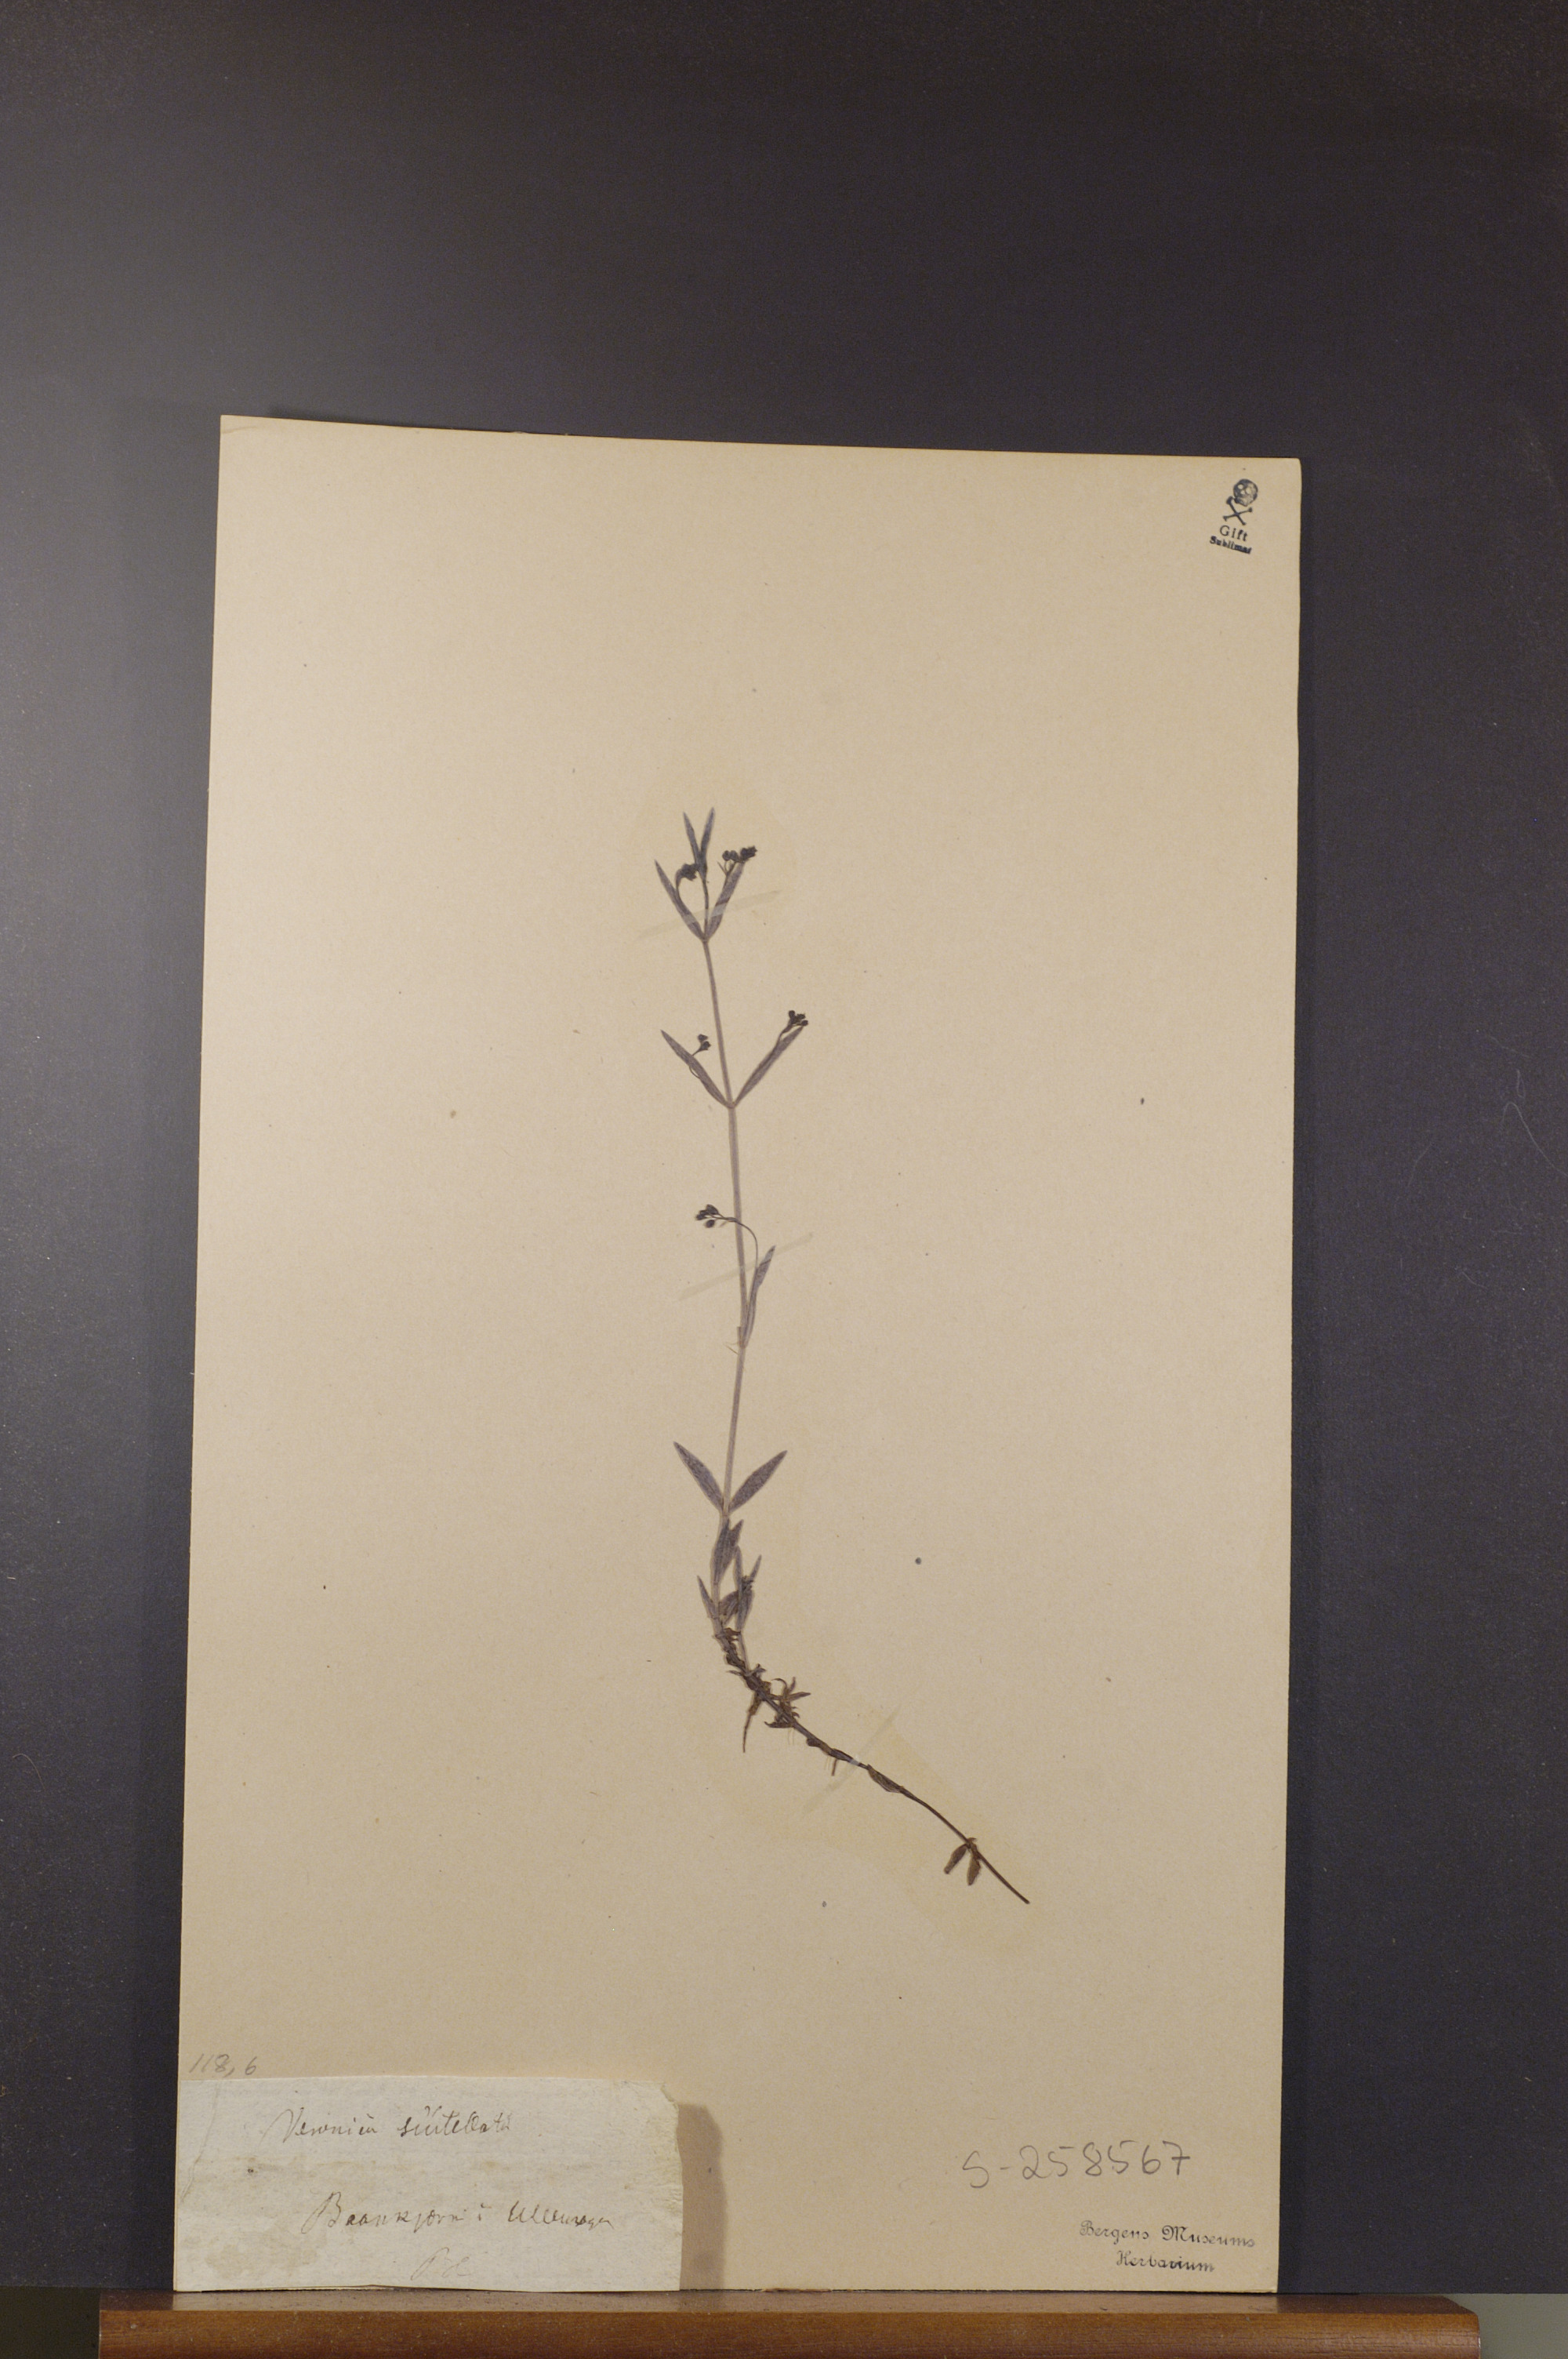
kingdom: Plantae
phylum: Tracheophyta
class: Magnoliopsida
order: Lamiales
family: Plantaginaceae
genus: Veronica
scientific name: Veronica scutellata
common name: Marsh speedwell
